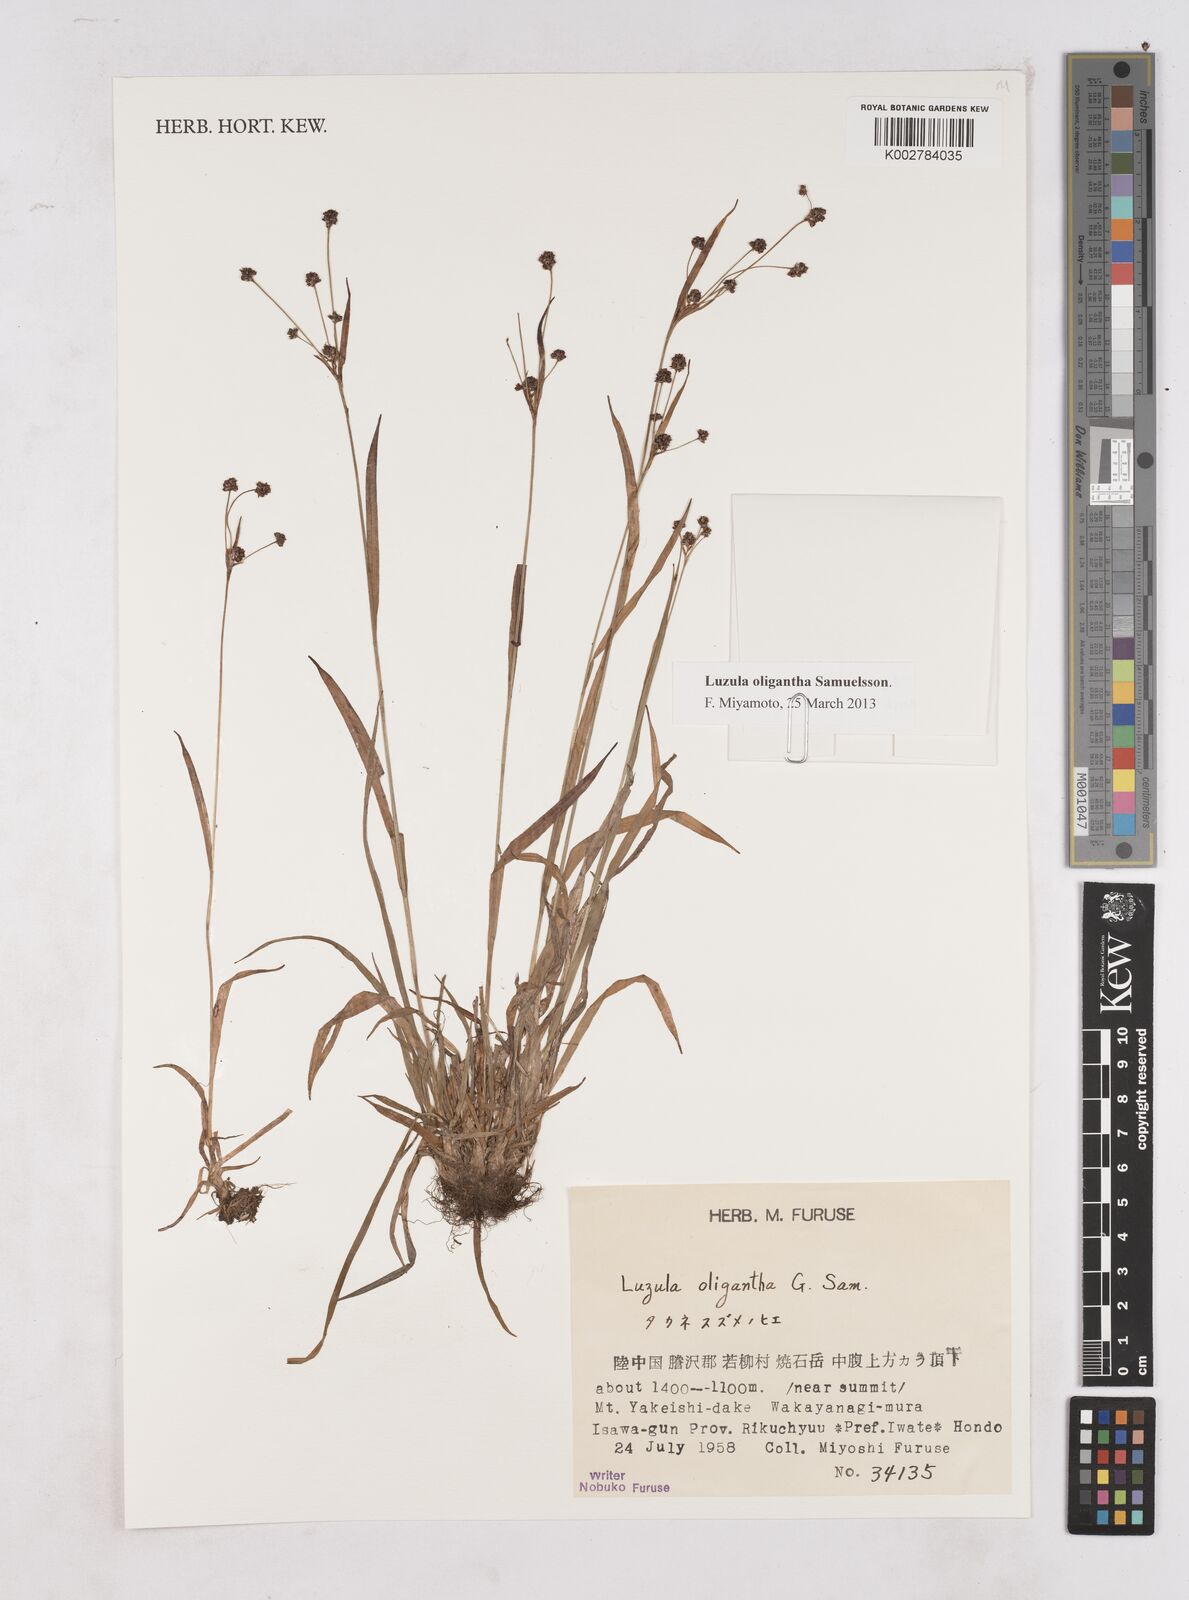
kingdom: Plantae
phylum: Tracheophyta
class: Liliopsida
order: Poales
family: Juncaceae
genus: Luzula
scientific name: Luzula oligantha
